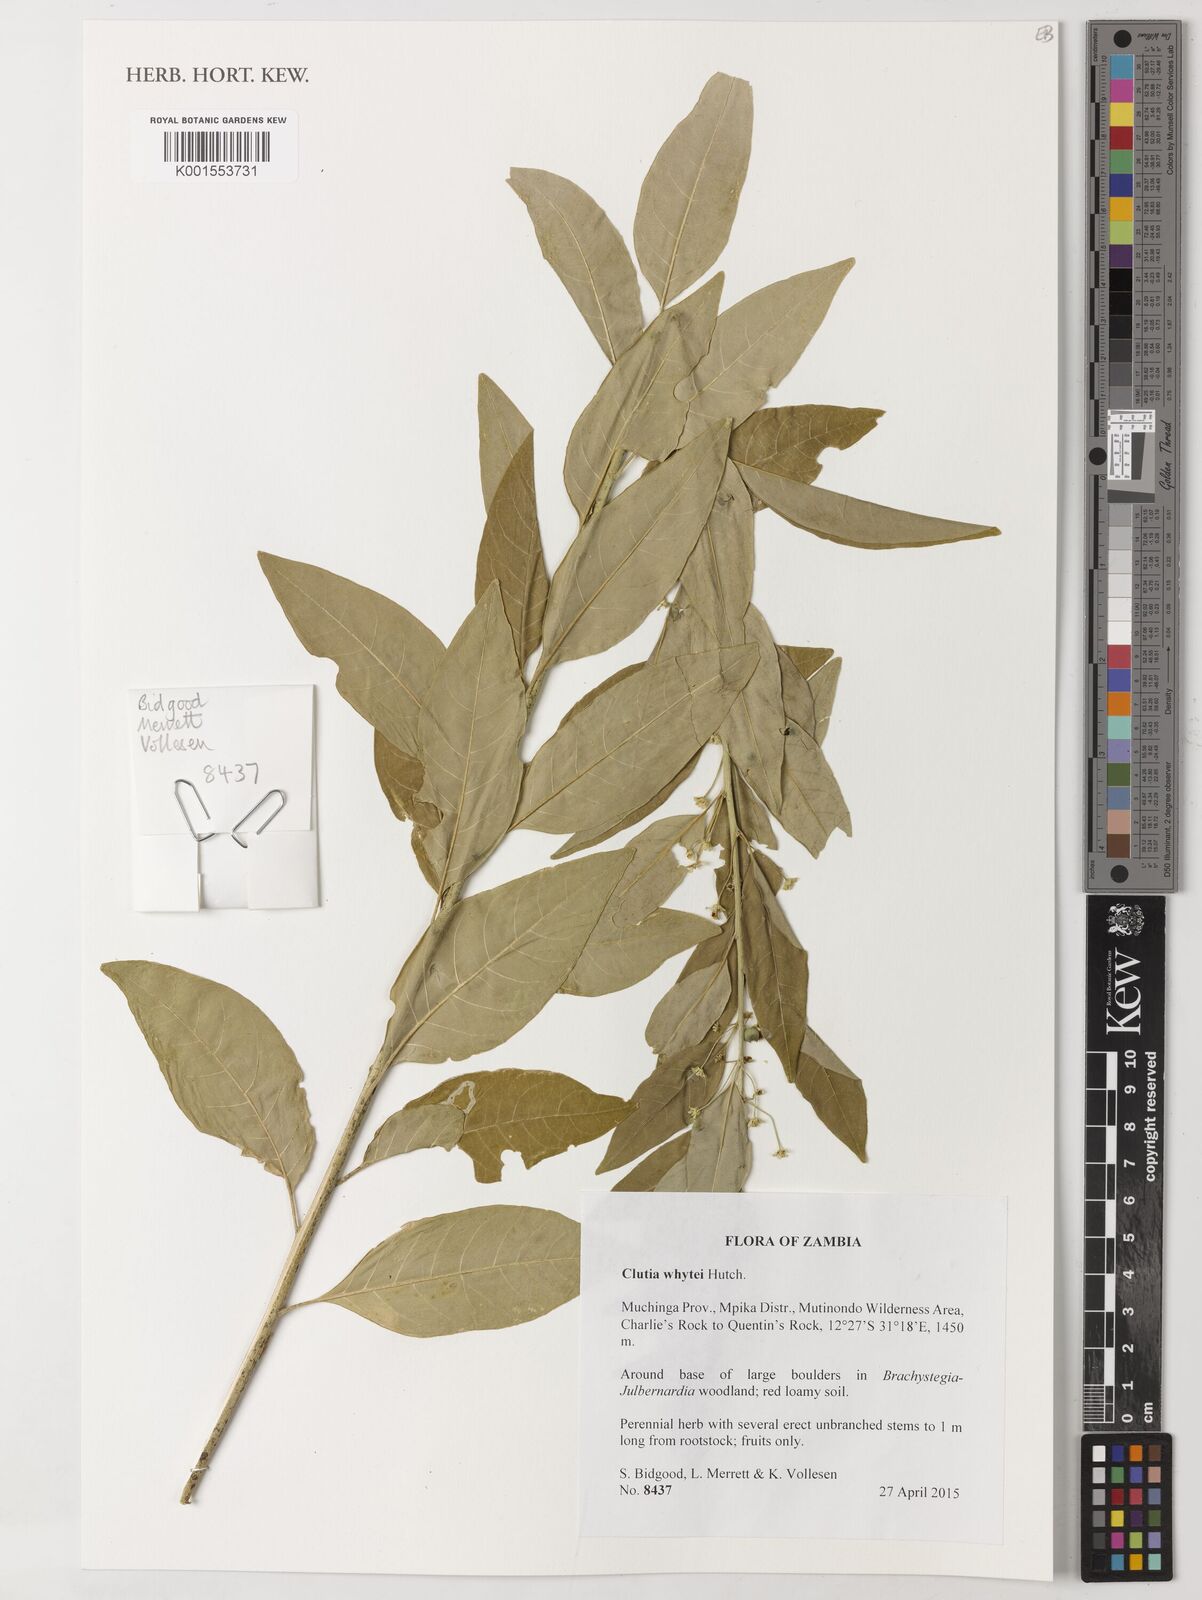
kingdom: Plantae
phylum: Tracheophyta
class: Magnoliopsida
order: Malpighiales
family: Peraceae
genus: Clutia
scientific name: Clutia whytei
